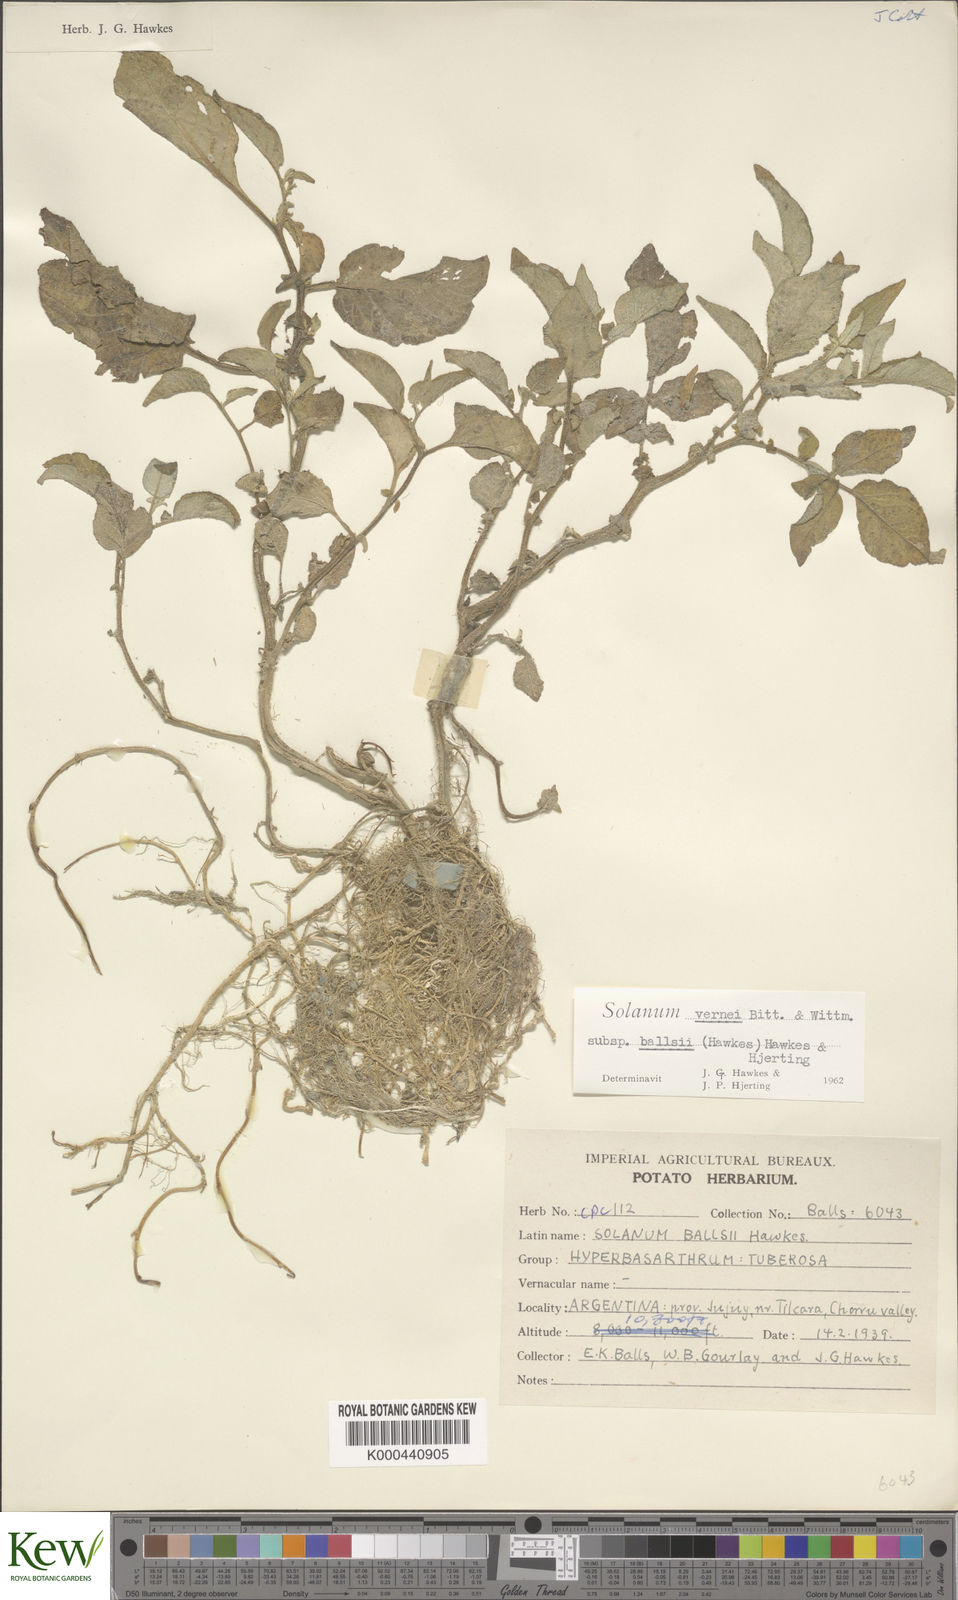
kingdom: Plantae
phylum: Tracheophyta
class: Magnoliopsida
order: Solanales
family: Solanaceae
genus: Solanum
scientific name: Solanum vernei
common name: Purple potato
